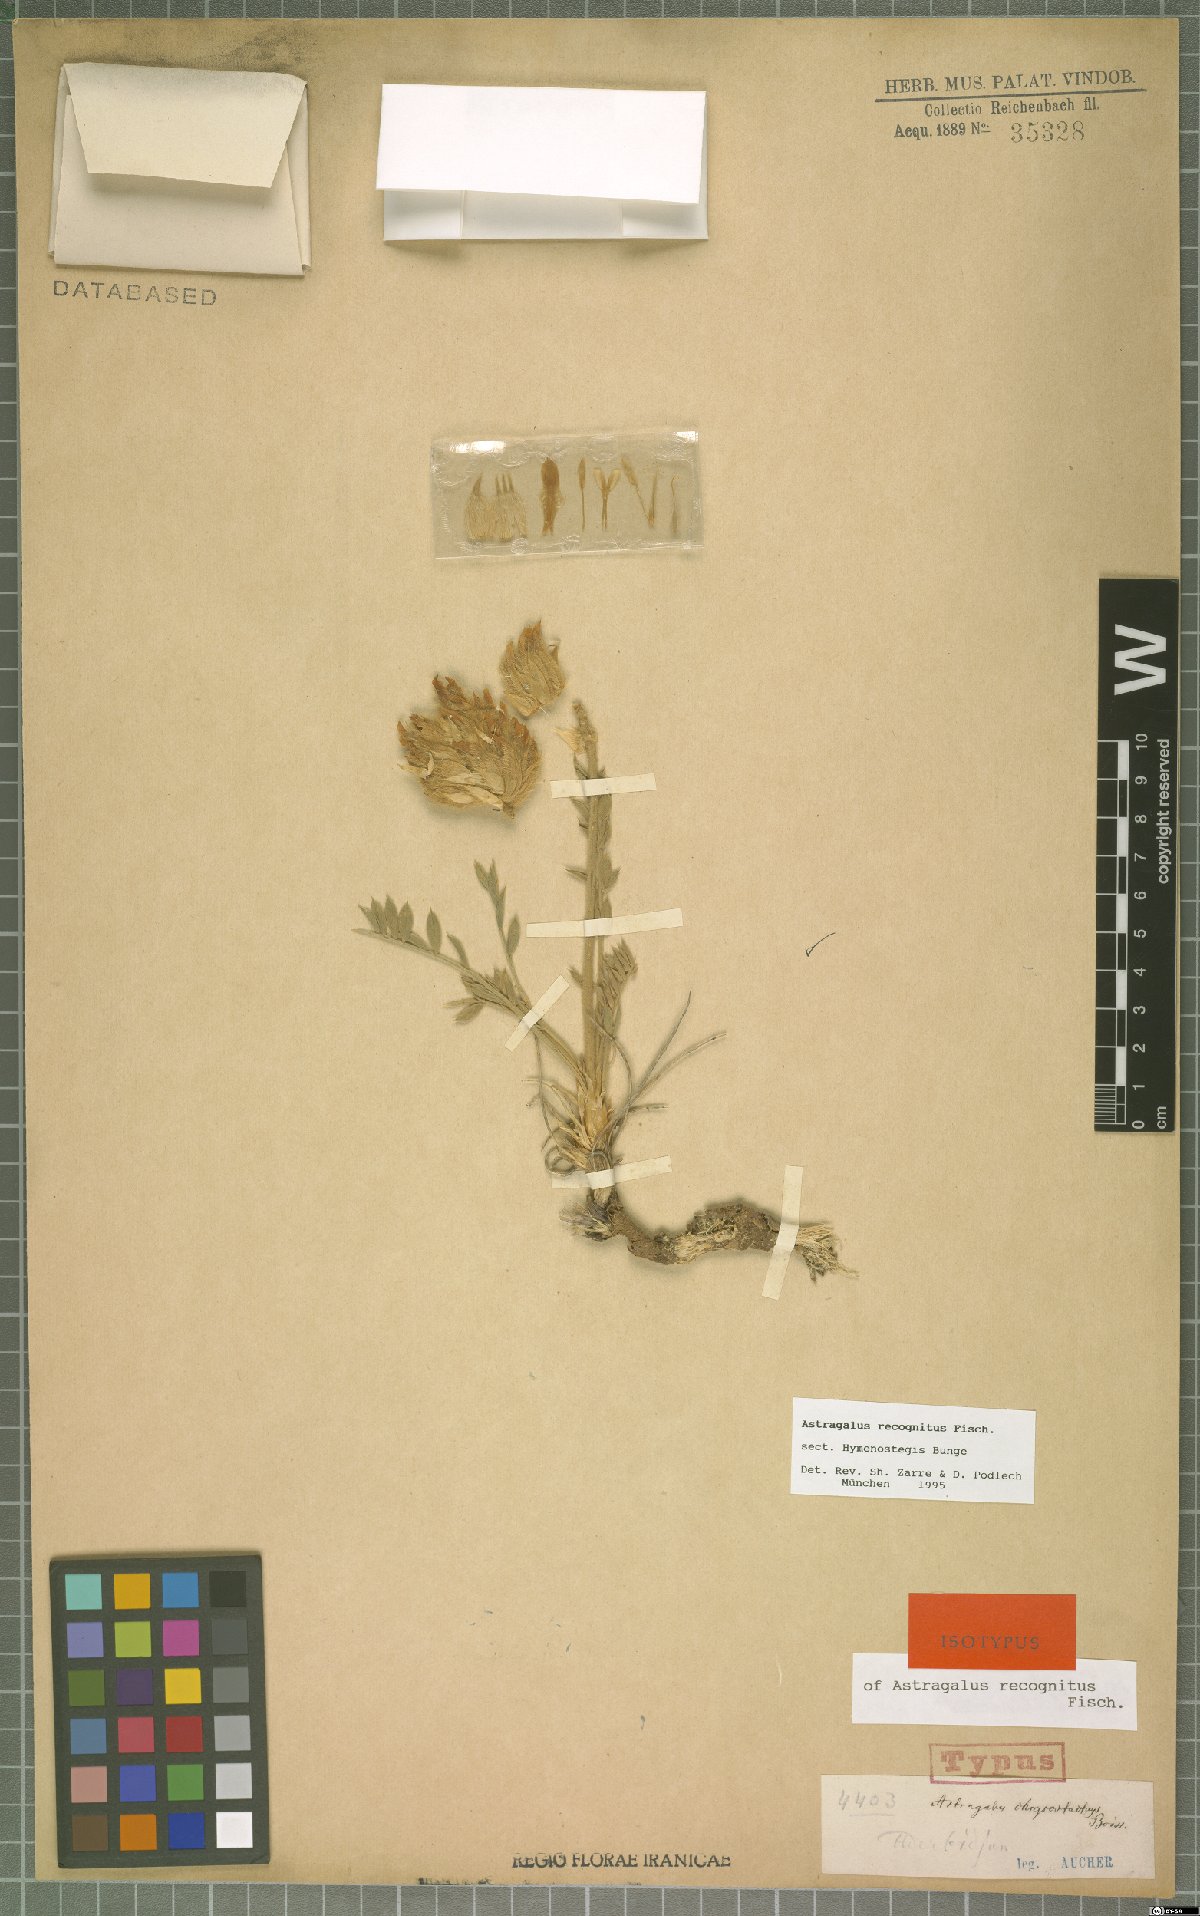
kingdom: Plantae
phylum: Tracheophyta
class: Magnoliopsida
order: Fabales
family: Fabaceae
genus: Astragalus
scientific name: Astragalus recognitus
